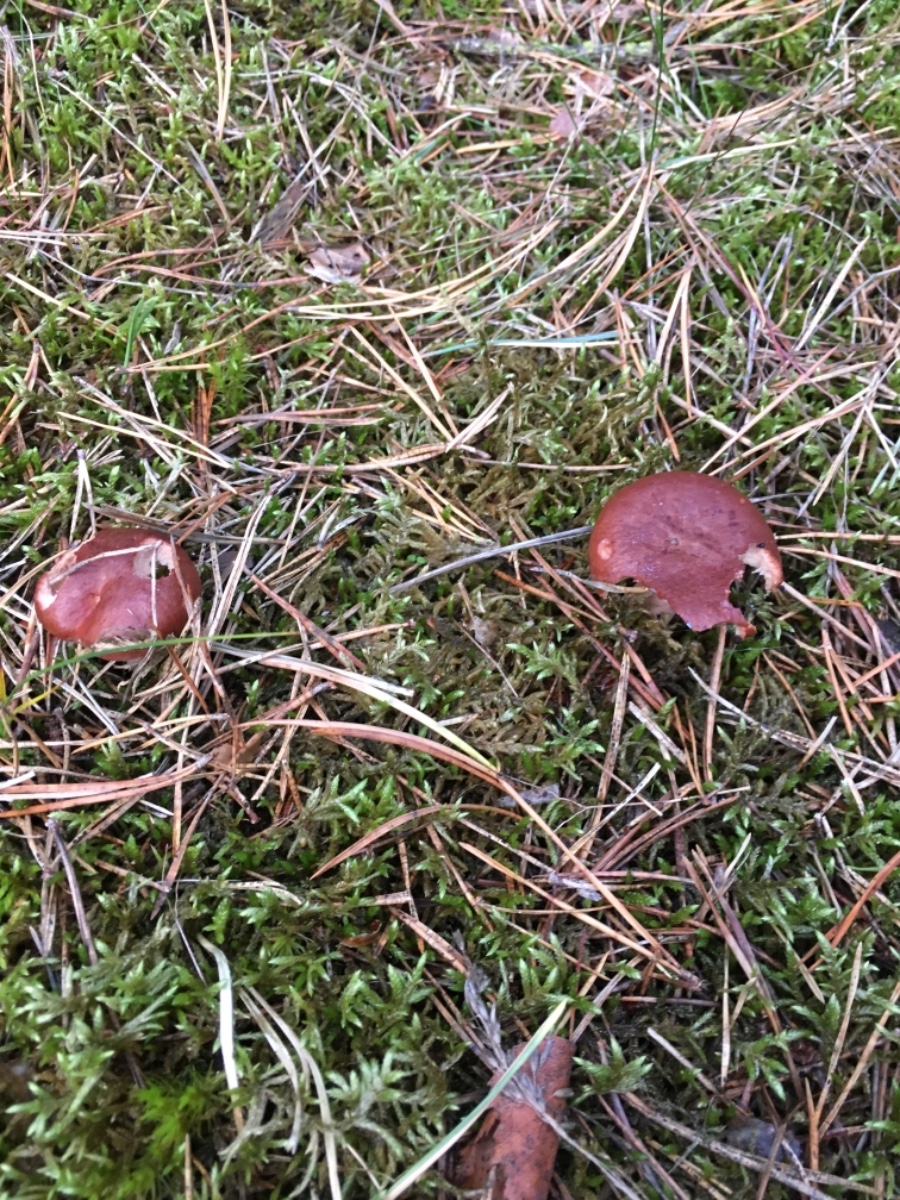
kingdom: Fungi
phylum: Basidiomycota
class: Agaricomycetes
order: Russulales
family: Russulaceae
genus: Lactarius
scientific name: Lactarius rufus
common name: rødbrun mælkehat
